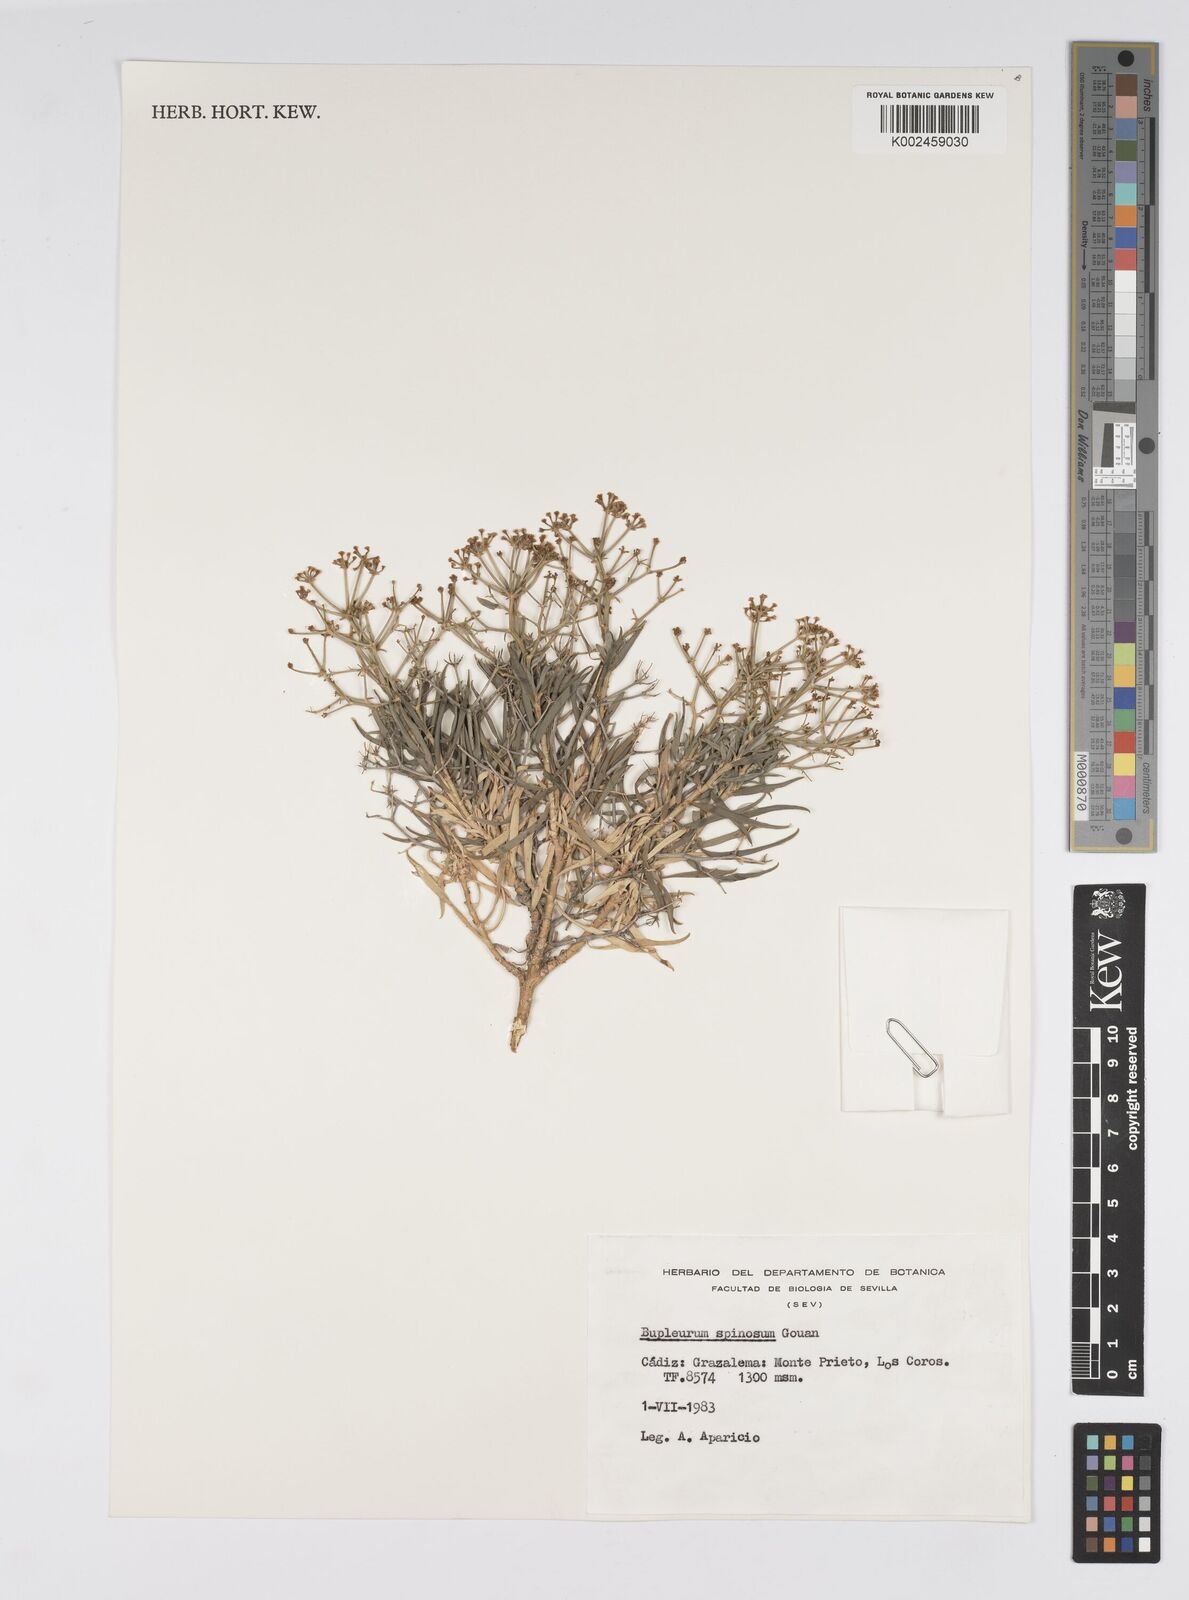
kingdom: Plantae
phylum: Tracheophyta
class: Magnoliopsida
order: Apiales
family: Apiaceae
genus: Bupleurum
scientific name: Bupleurum fruticescens
